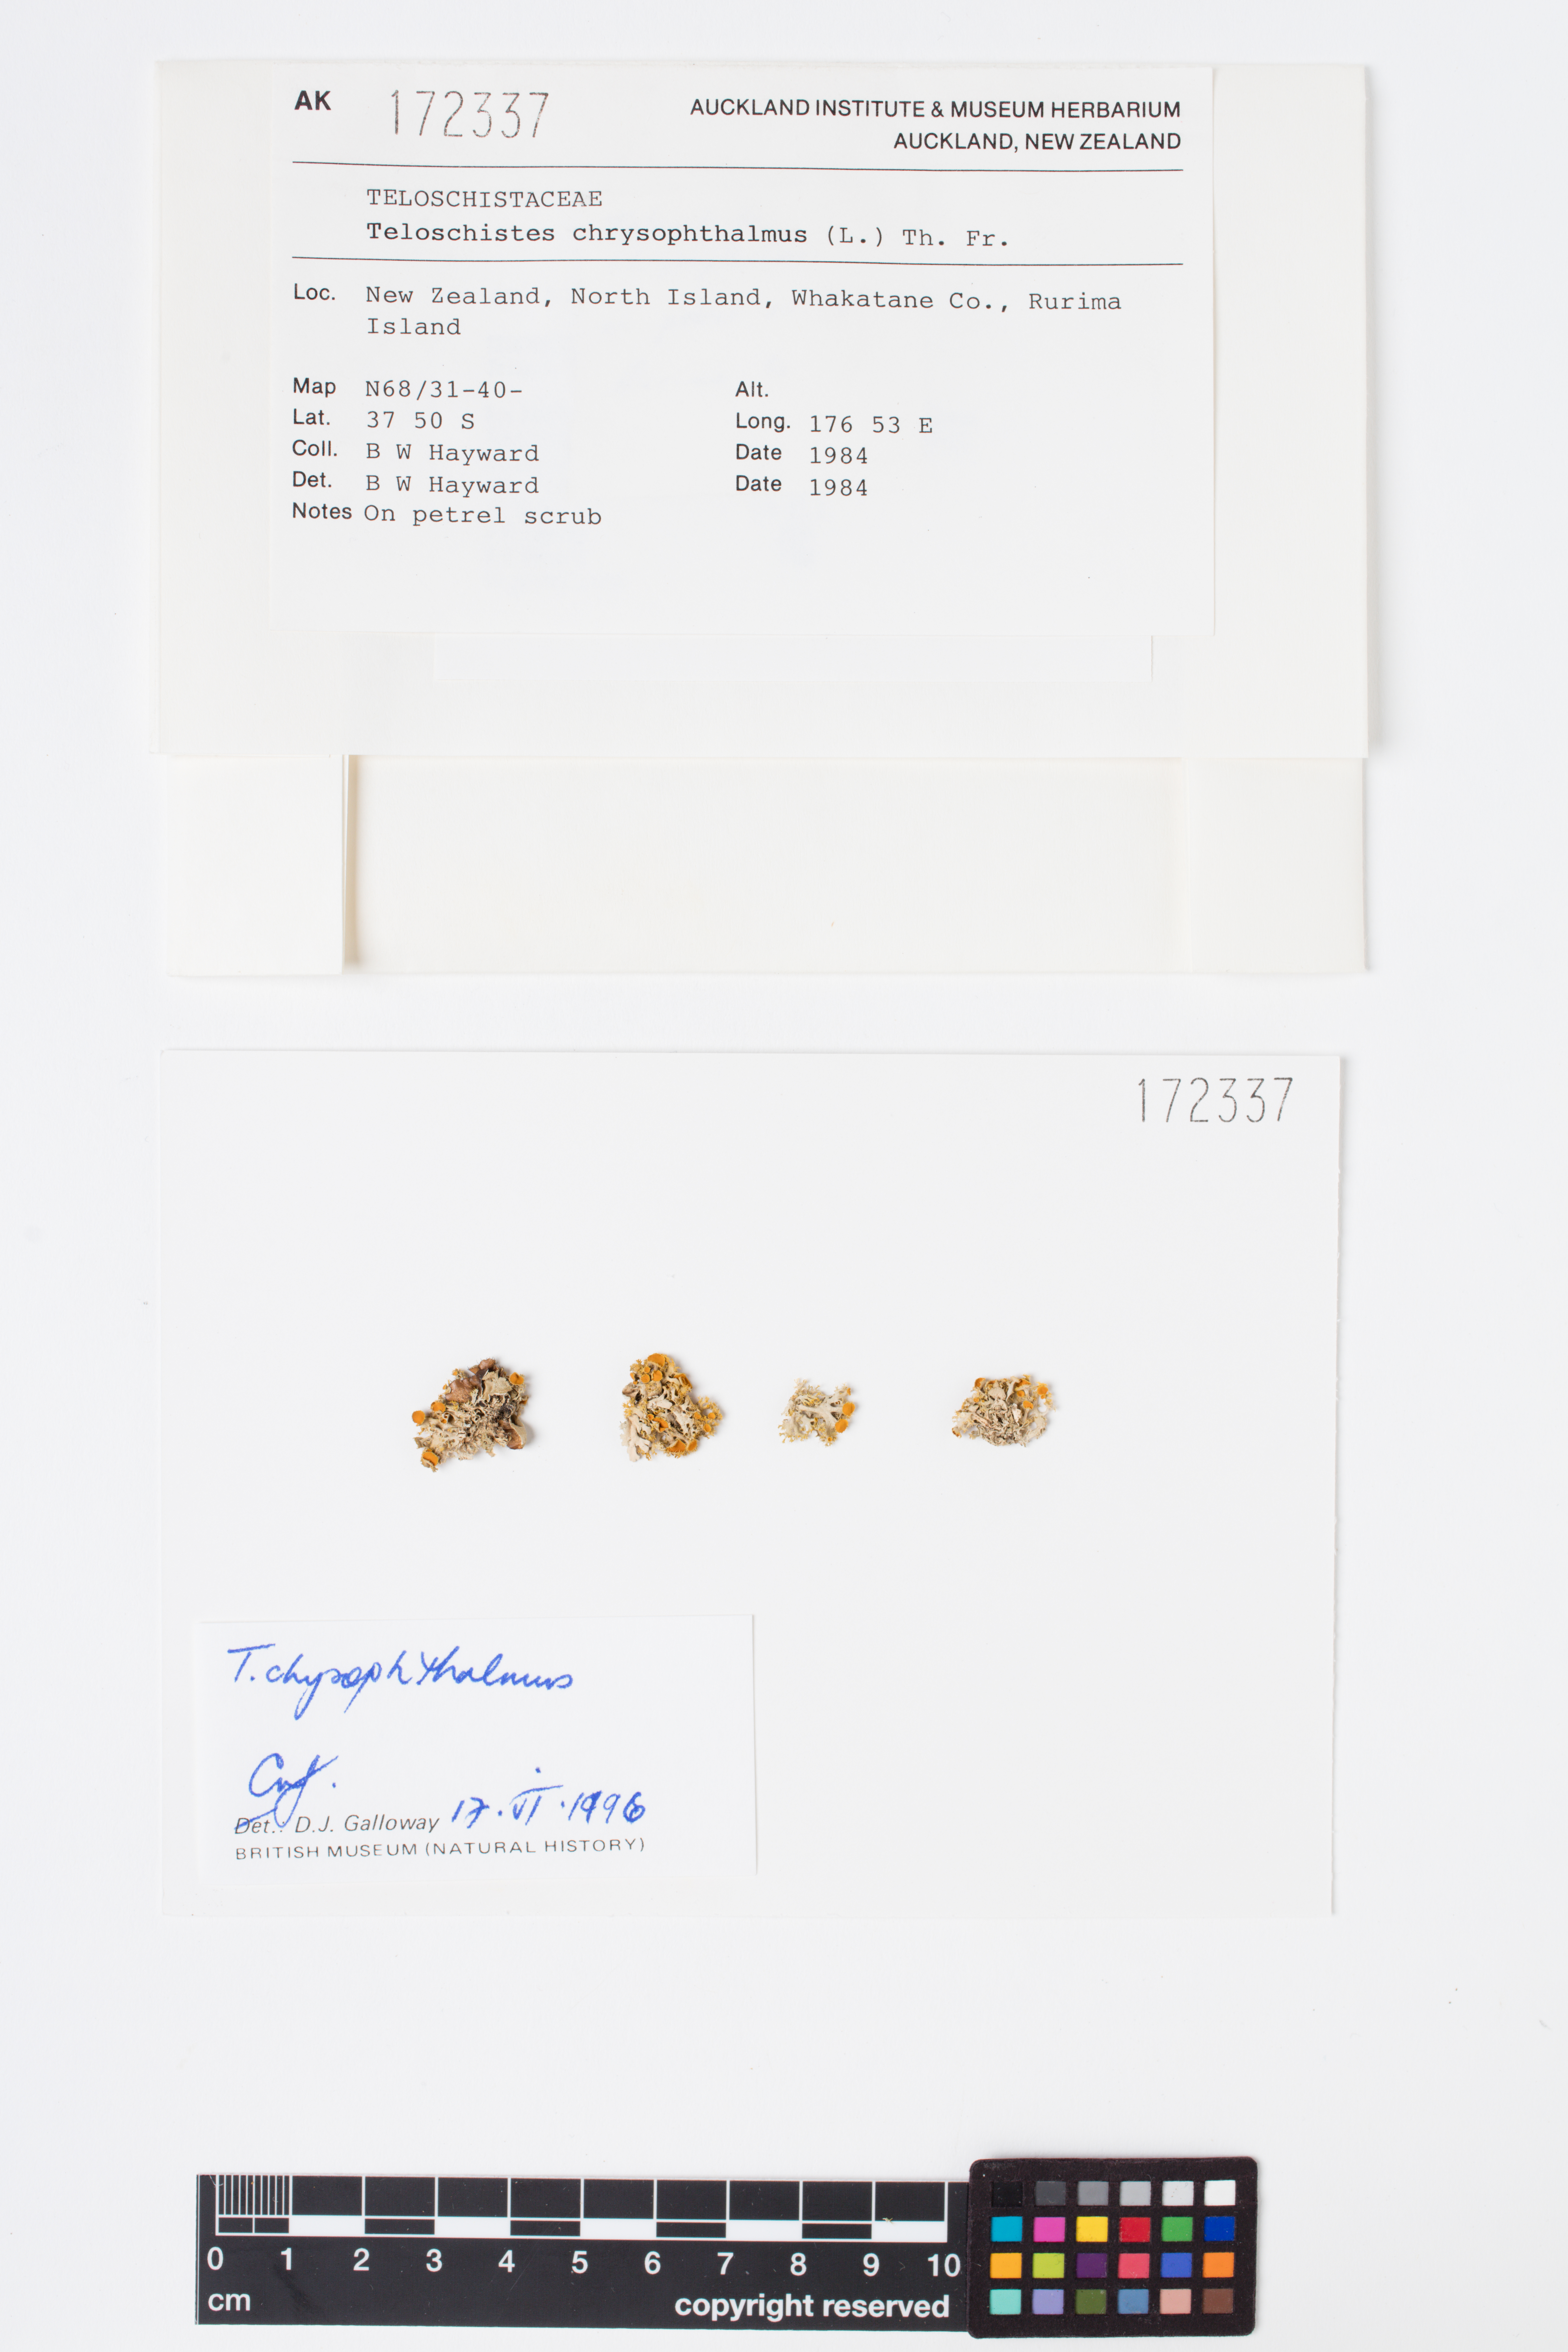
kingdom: Fungi
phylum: Ascomycota
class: Lecanoromycetes
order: Teloschistales
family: Teloschistaceae
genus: Niorma
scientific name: Niorma chrysophthalma
